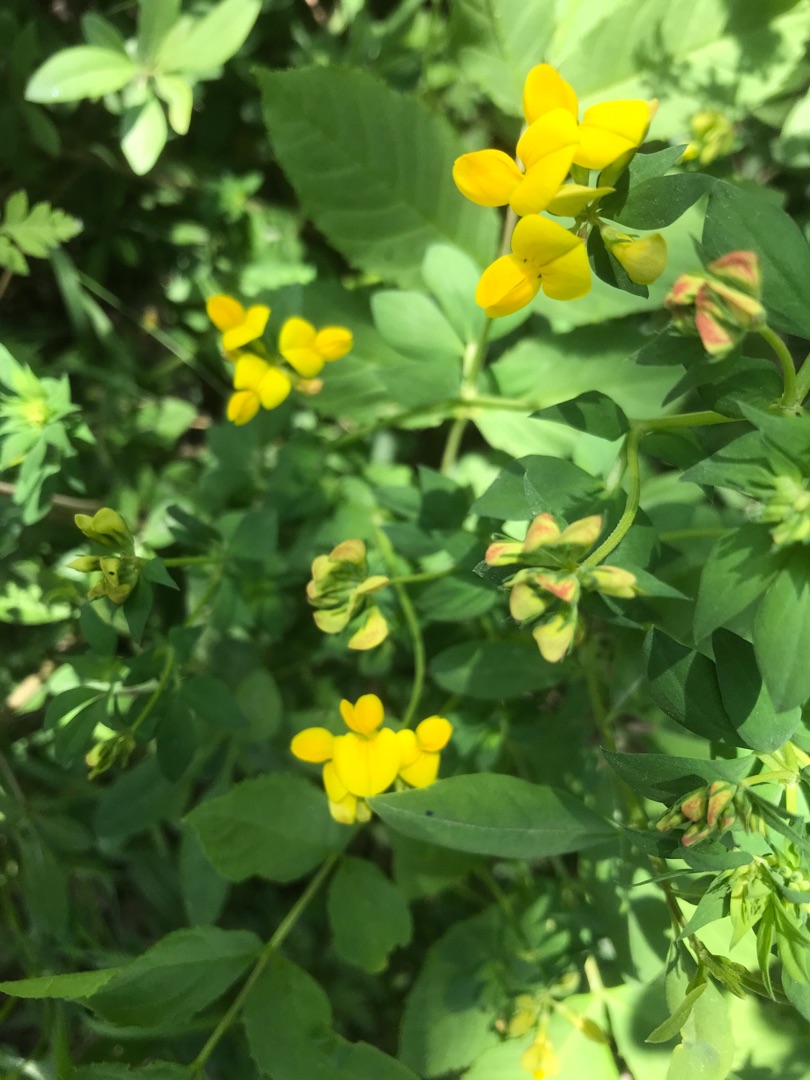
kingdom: Plantae
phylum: Tracheophyta
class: Magnoliopsida
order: Fabales
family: Fabaceae
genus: Lotus
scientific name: Lotus corniculatus
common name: Almindelig kællingetand
